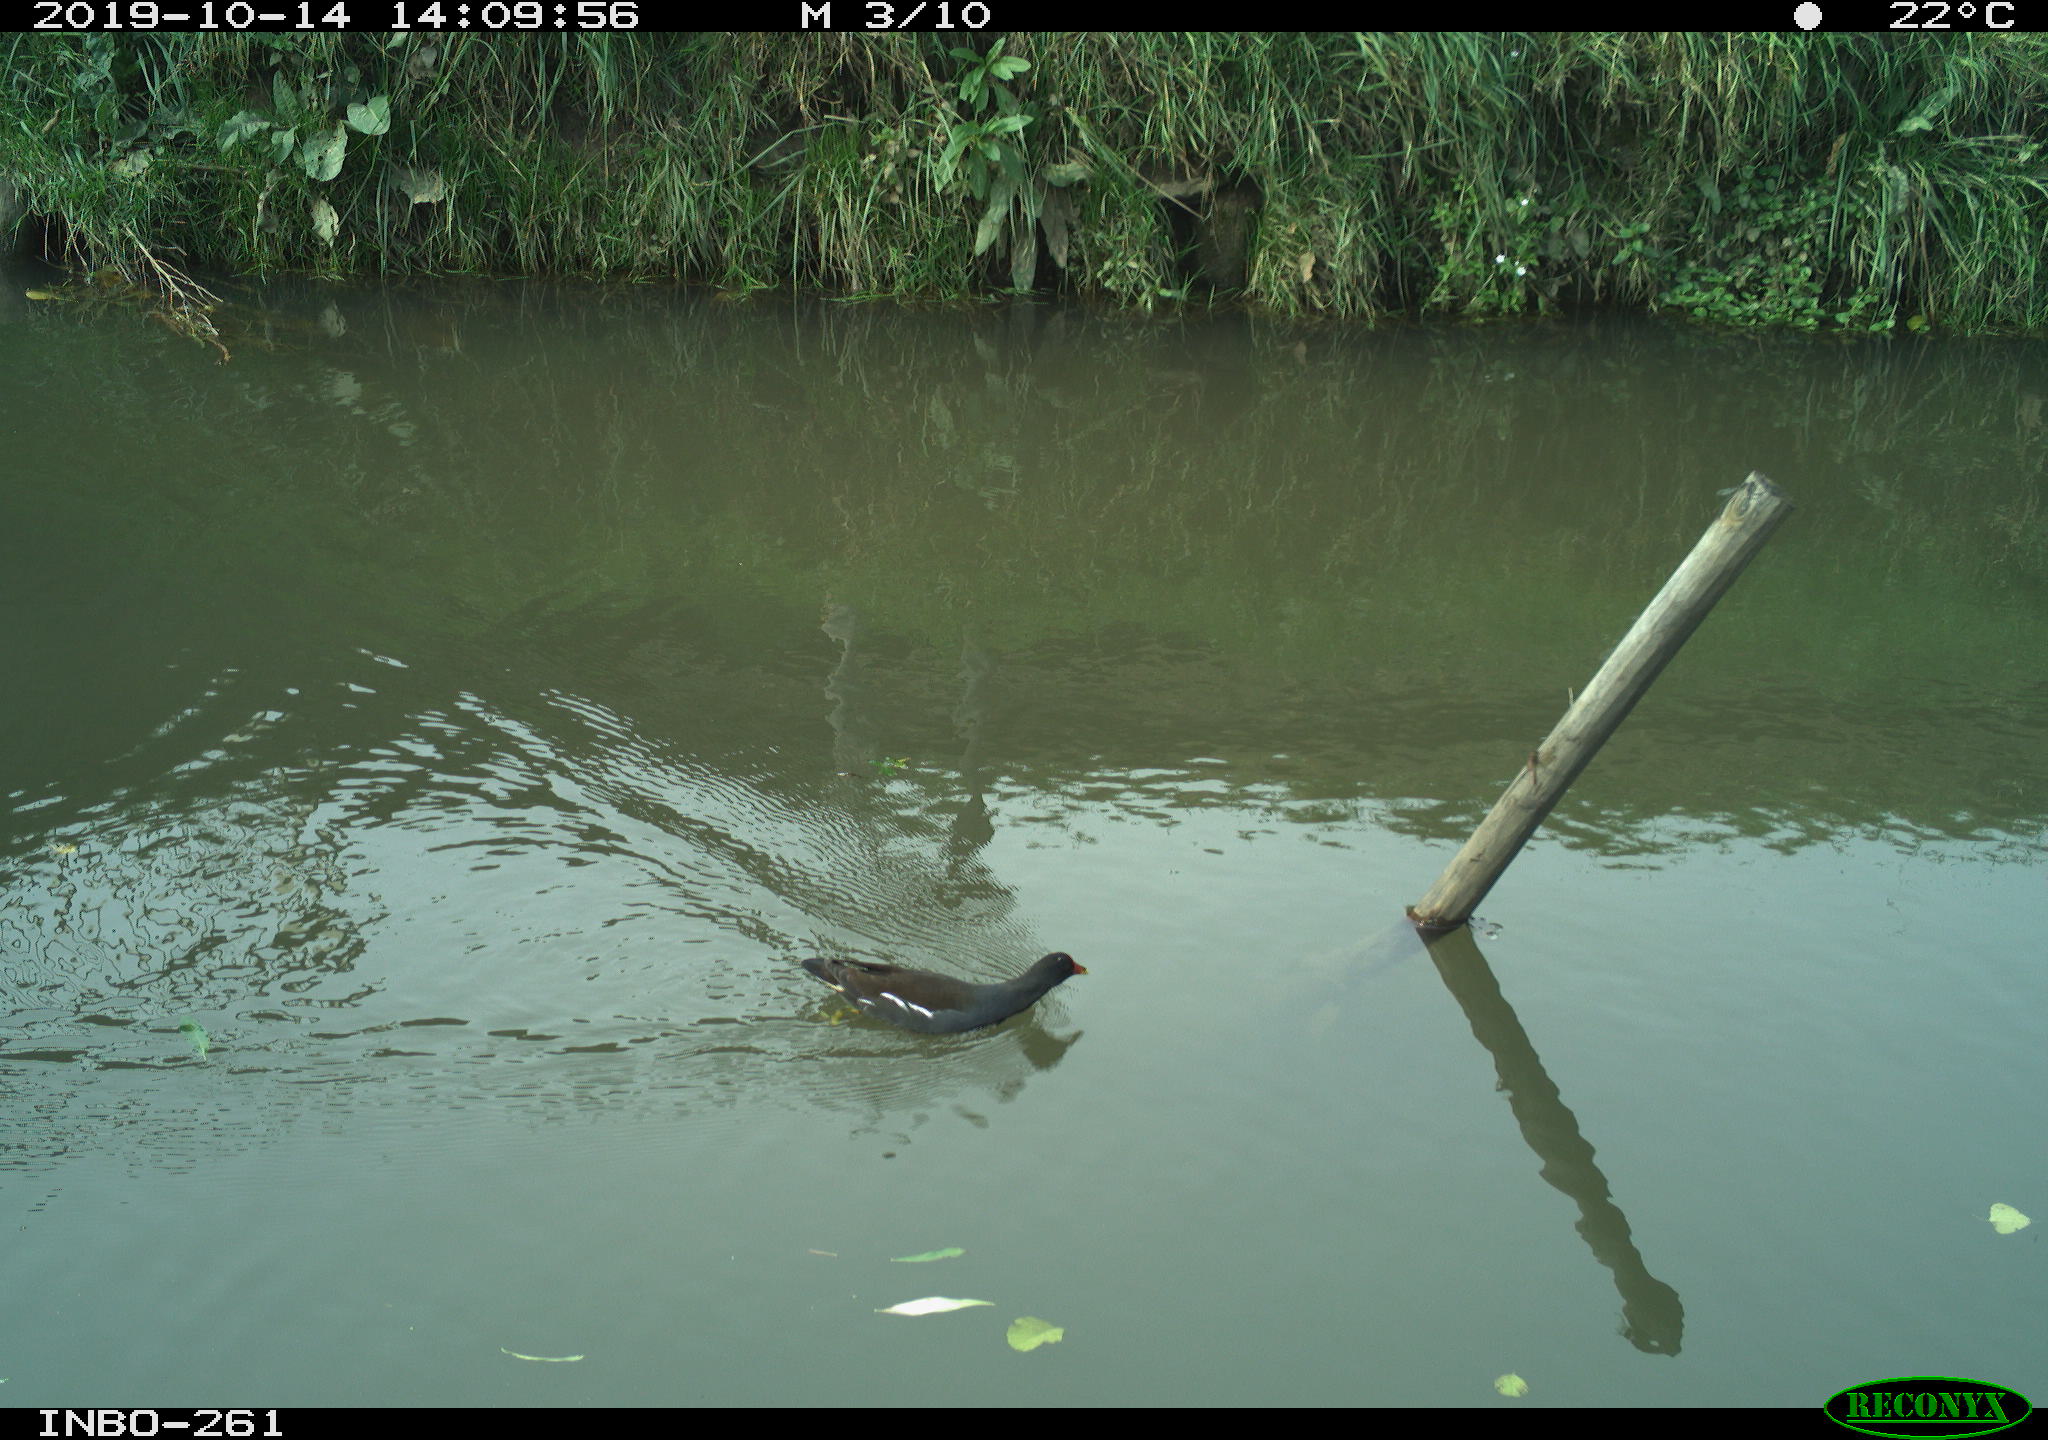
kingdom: Animalia
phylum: Chordata
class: Aves
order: Gruiformes
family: Rallidae
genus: Gallinula
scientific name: Gallinula chloropus
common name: Common moorhen
